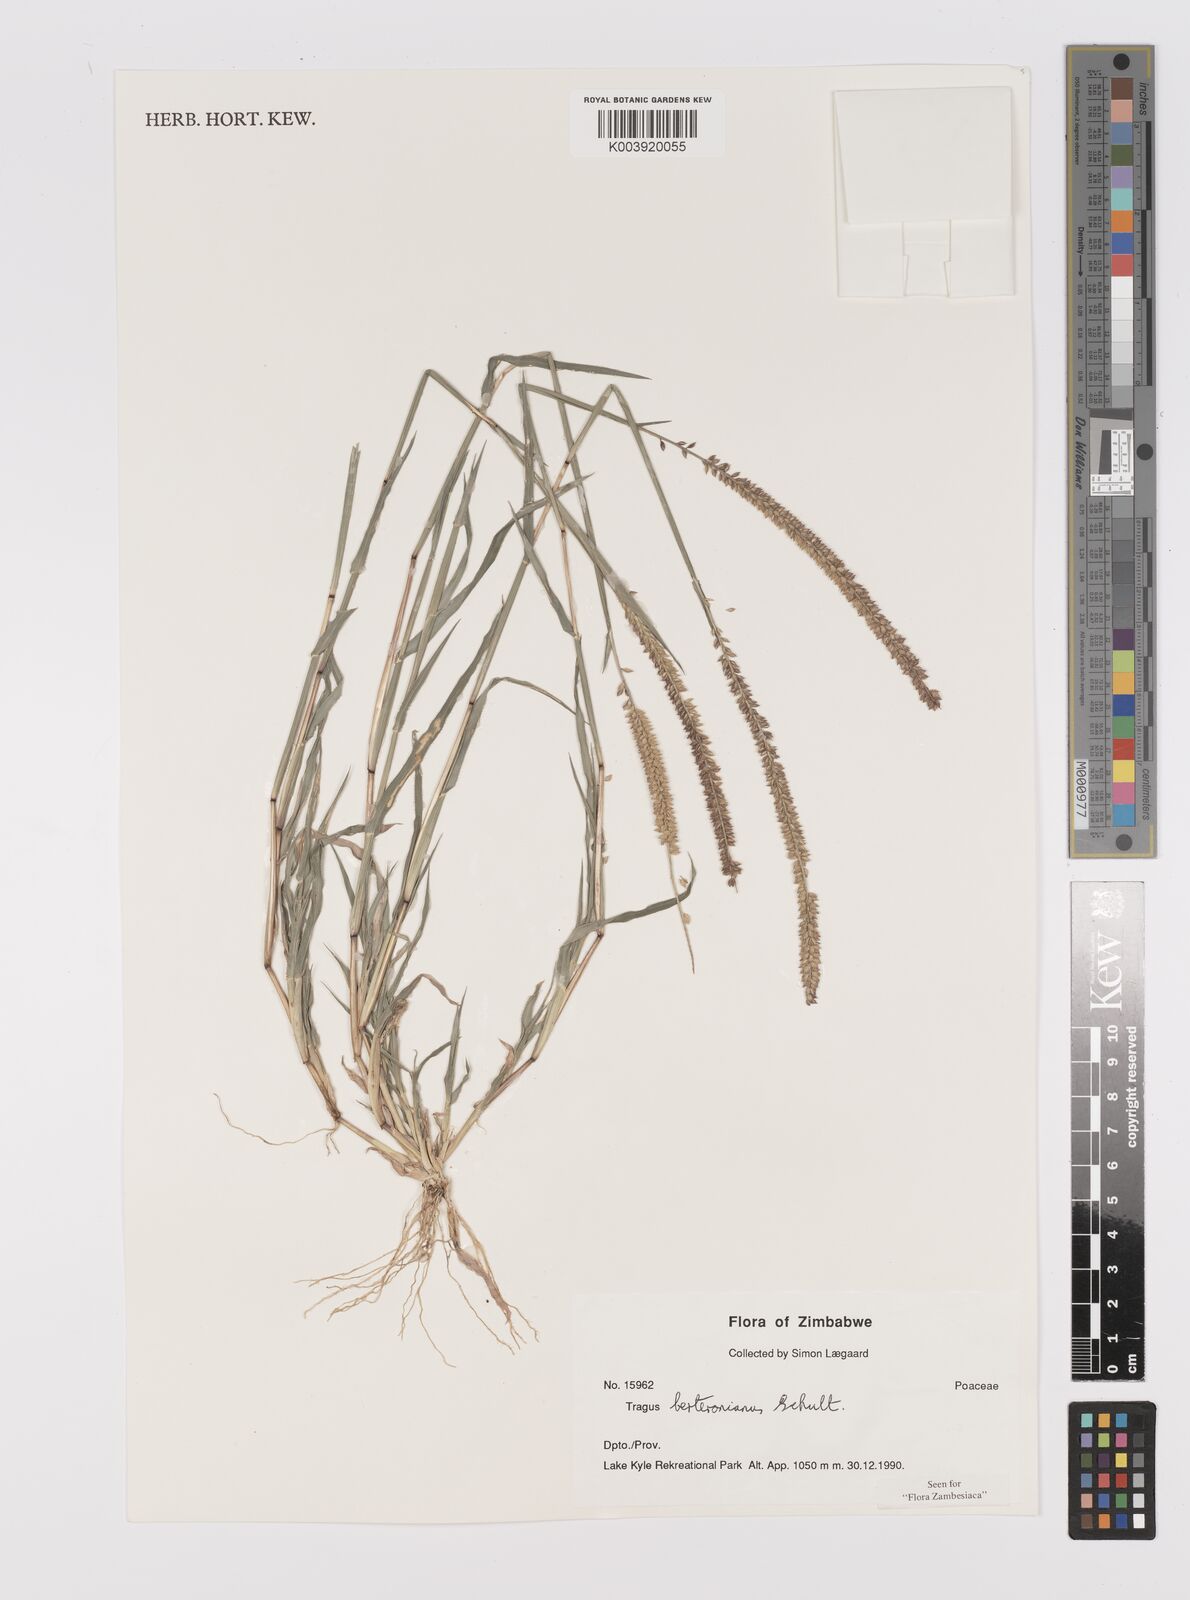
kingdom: Plantae
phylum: Tracheophyta
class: Liliopsida
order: Poales
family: Poaceae
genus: Tragus
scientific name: Tragus berteronianus
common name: African bur-grass
